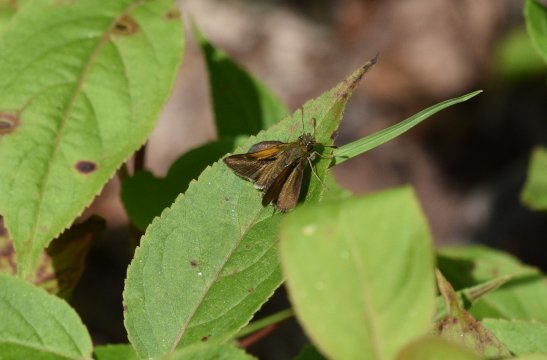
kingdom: Animalia
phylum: Arthropoda
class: Insecta
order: Lepidoptera
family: Hesperiidae
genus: Polites
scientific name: Polites themistocles
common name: Tawny-edged Skipper
